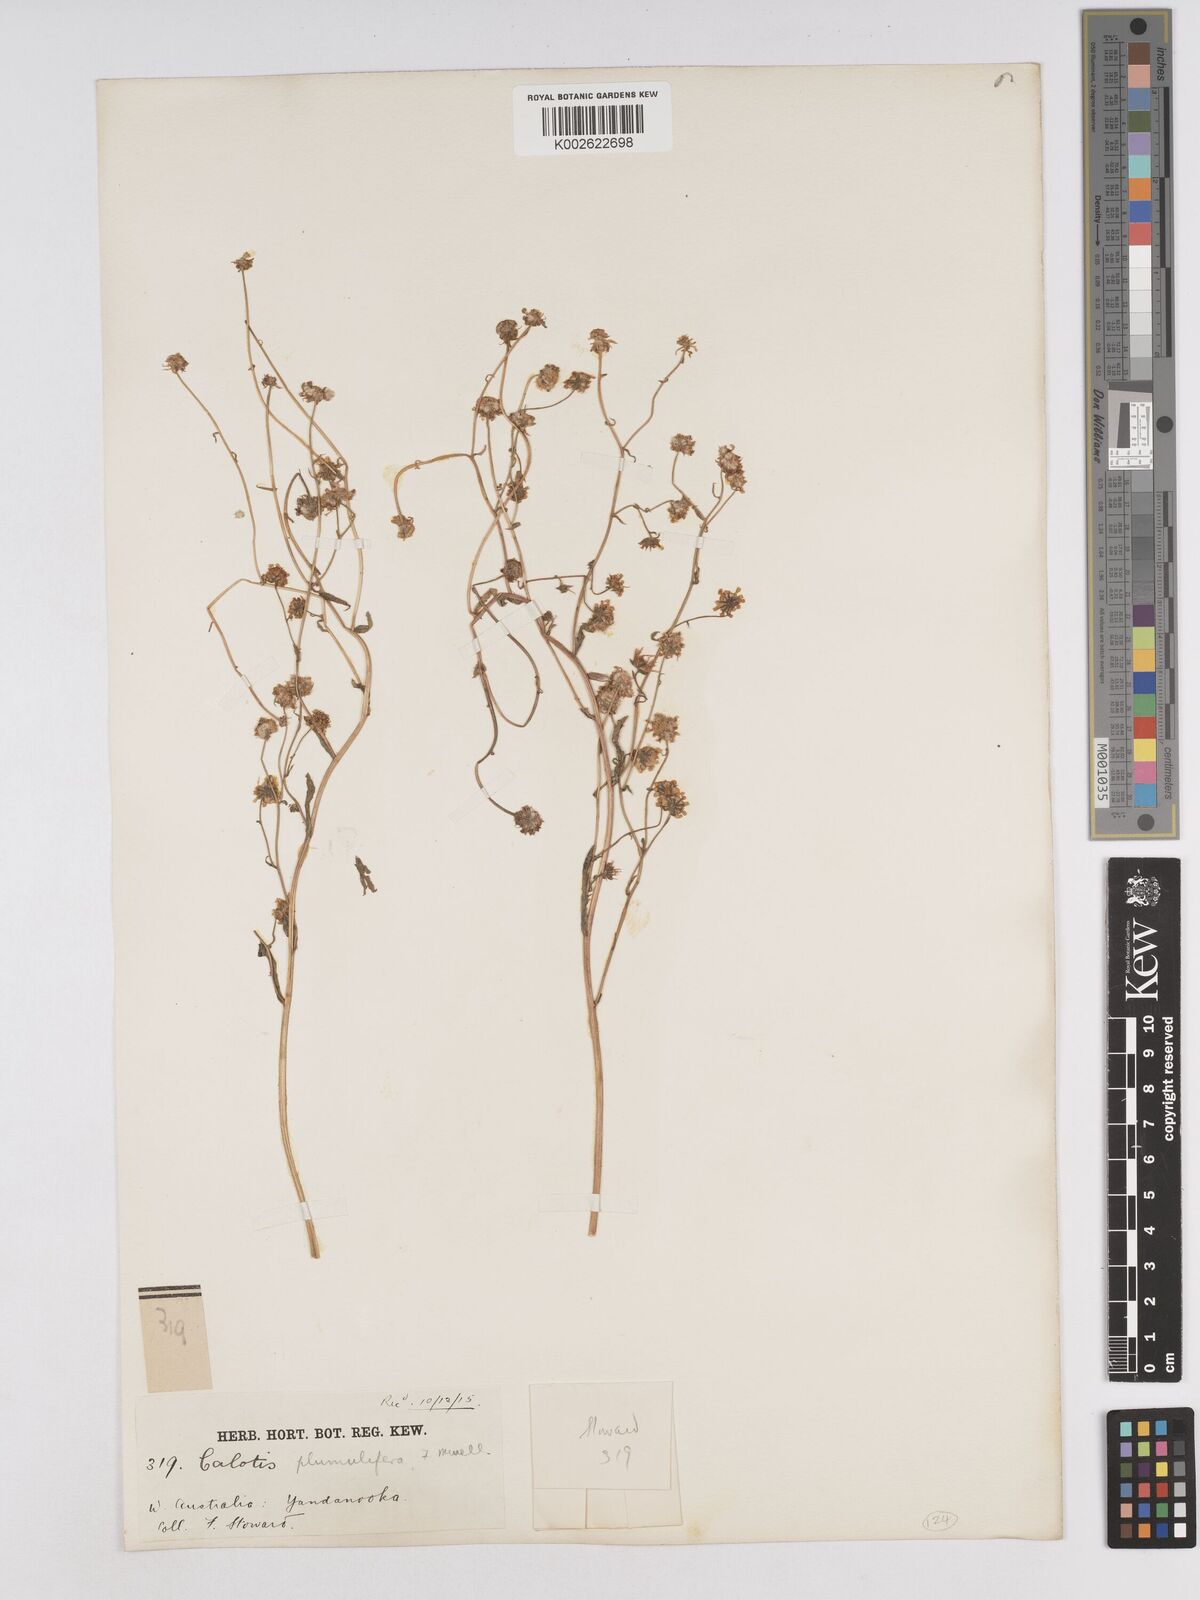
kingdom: Plantae
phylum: Tracheophyta
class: Magnoliopsida
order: Asterales
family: Asteraceae
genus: Calotis
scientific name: Calotis multicaulis
